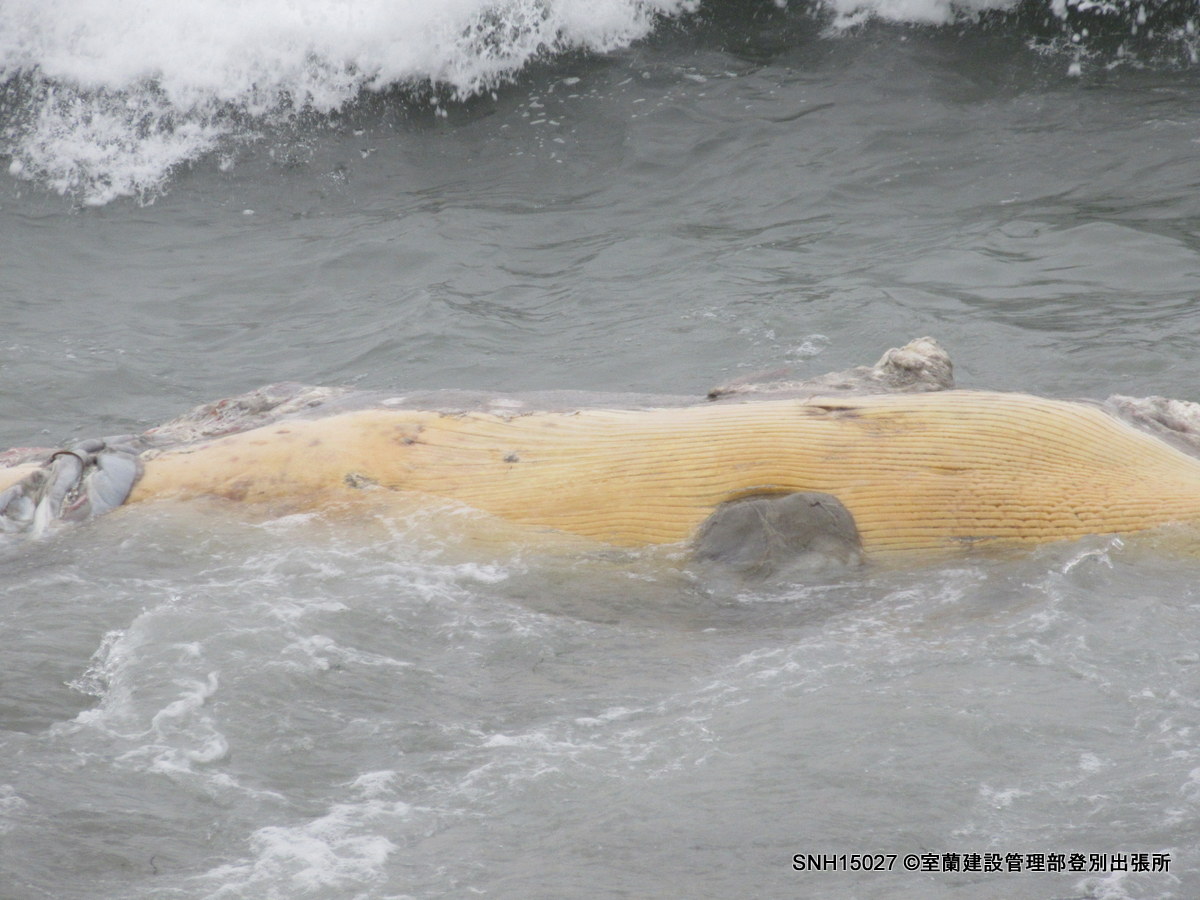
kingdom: Animalia
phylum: Chordata
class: Mammalia
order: Cetacea
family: Balaenopteridae
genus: Balaenoptera
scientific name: Balaenoptera
